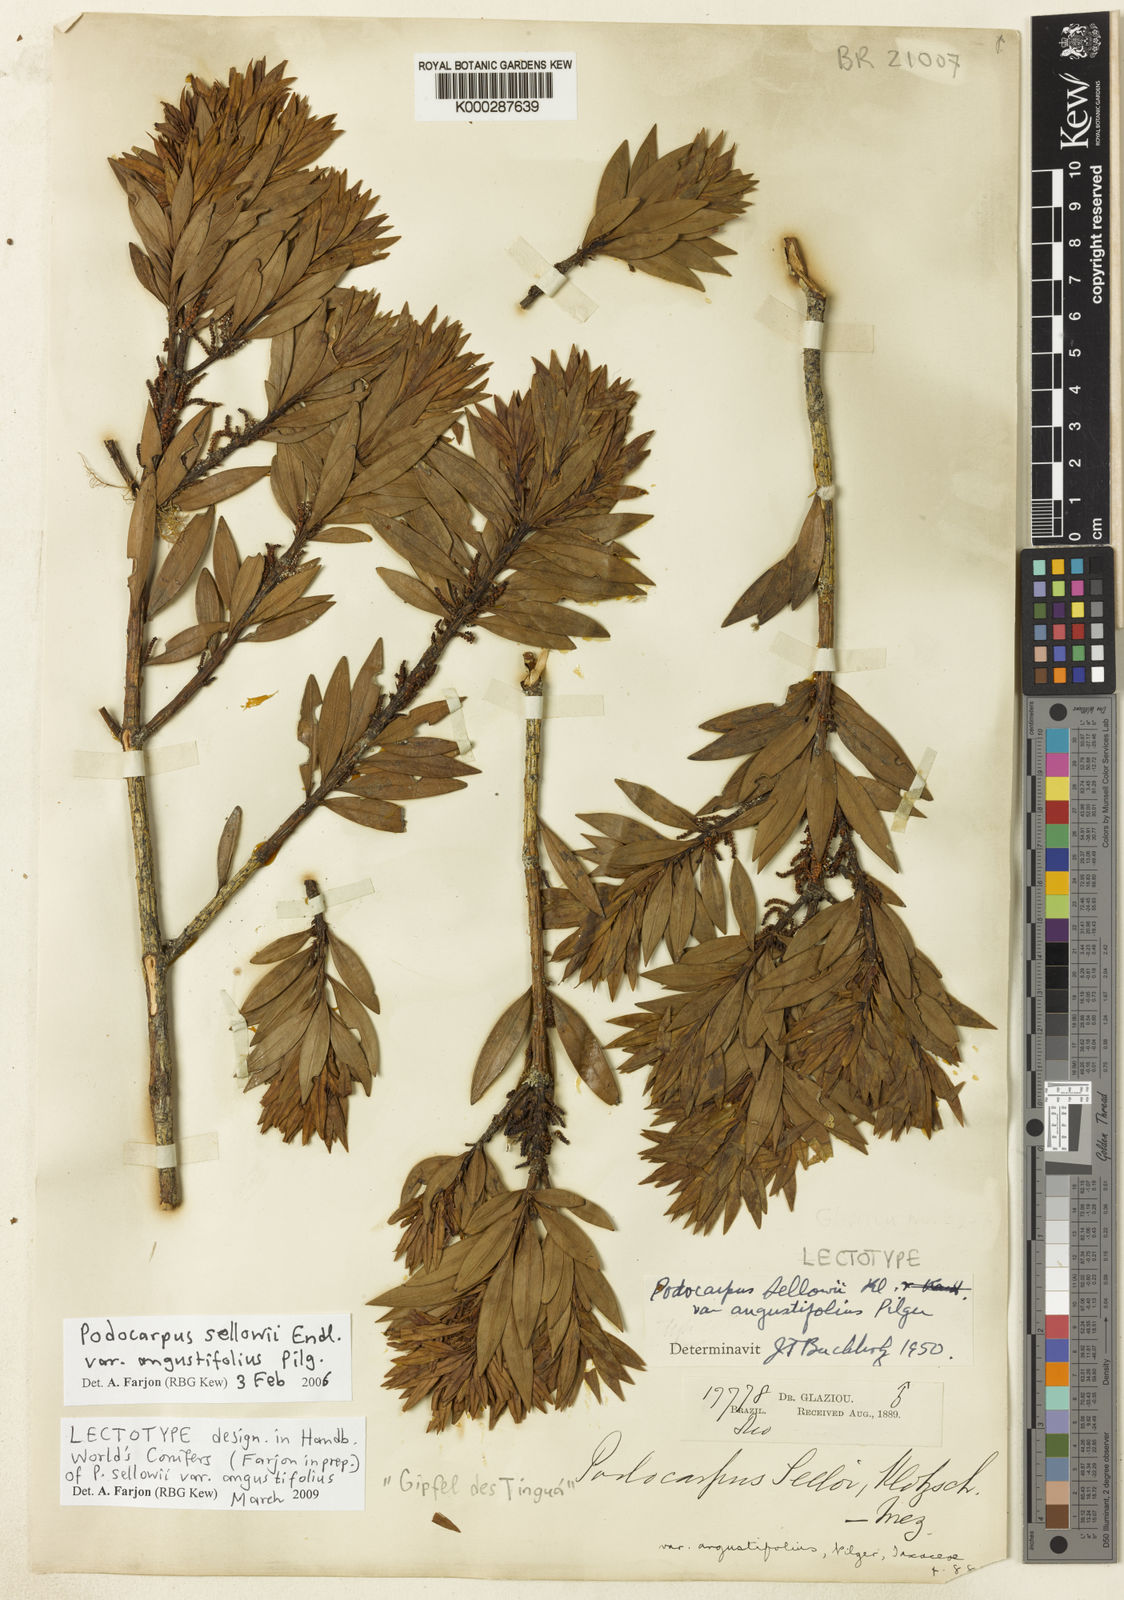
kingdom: Plantae
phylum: Tracheophyta
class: Pinopsida
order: Pinales
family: Podocarpaceae
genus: Podocarpus
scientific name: Podocarpus sellowii
